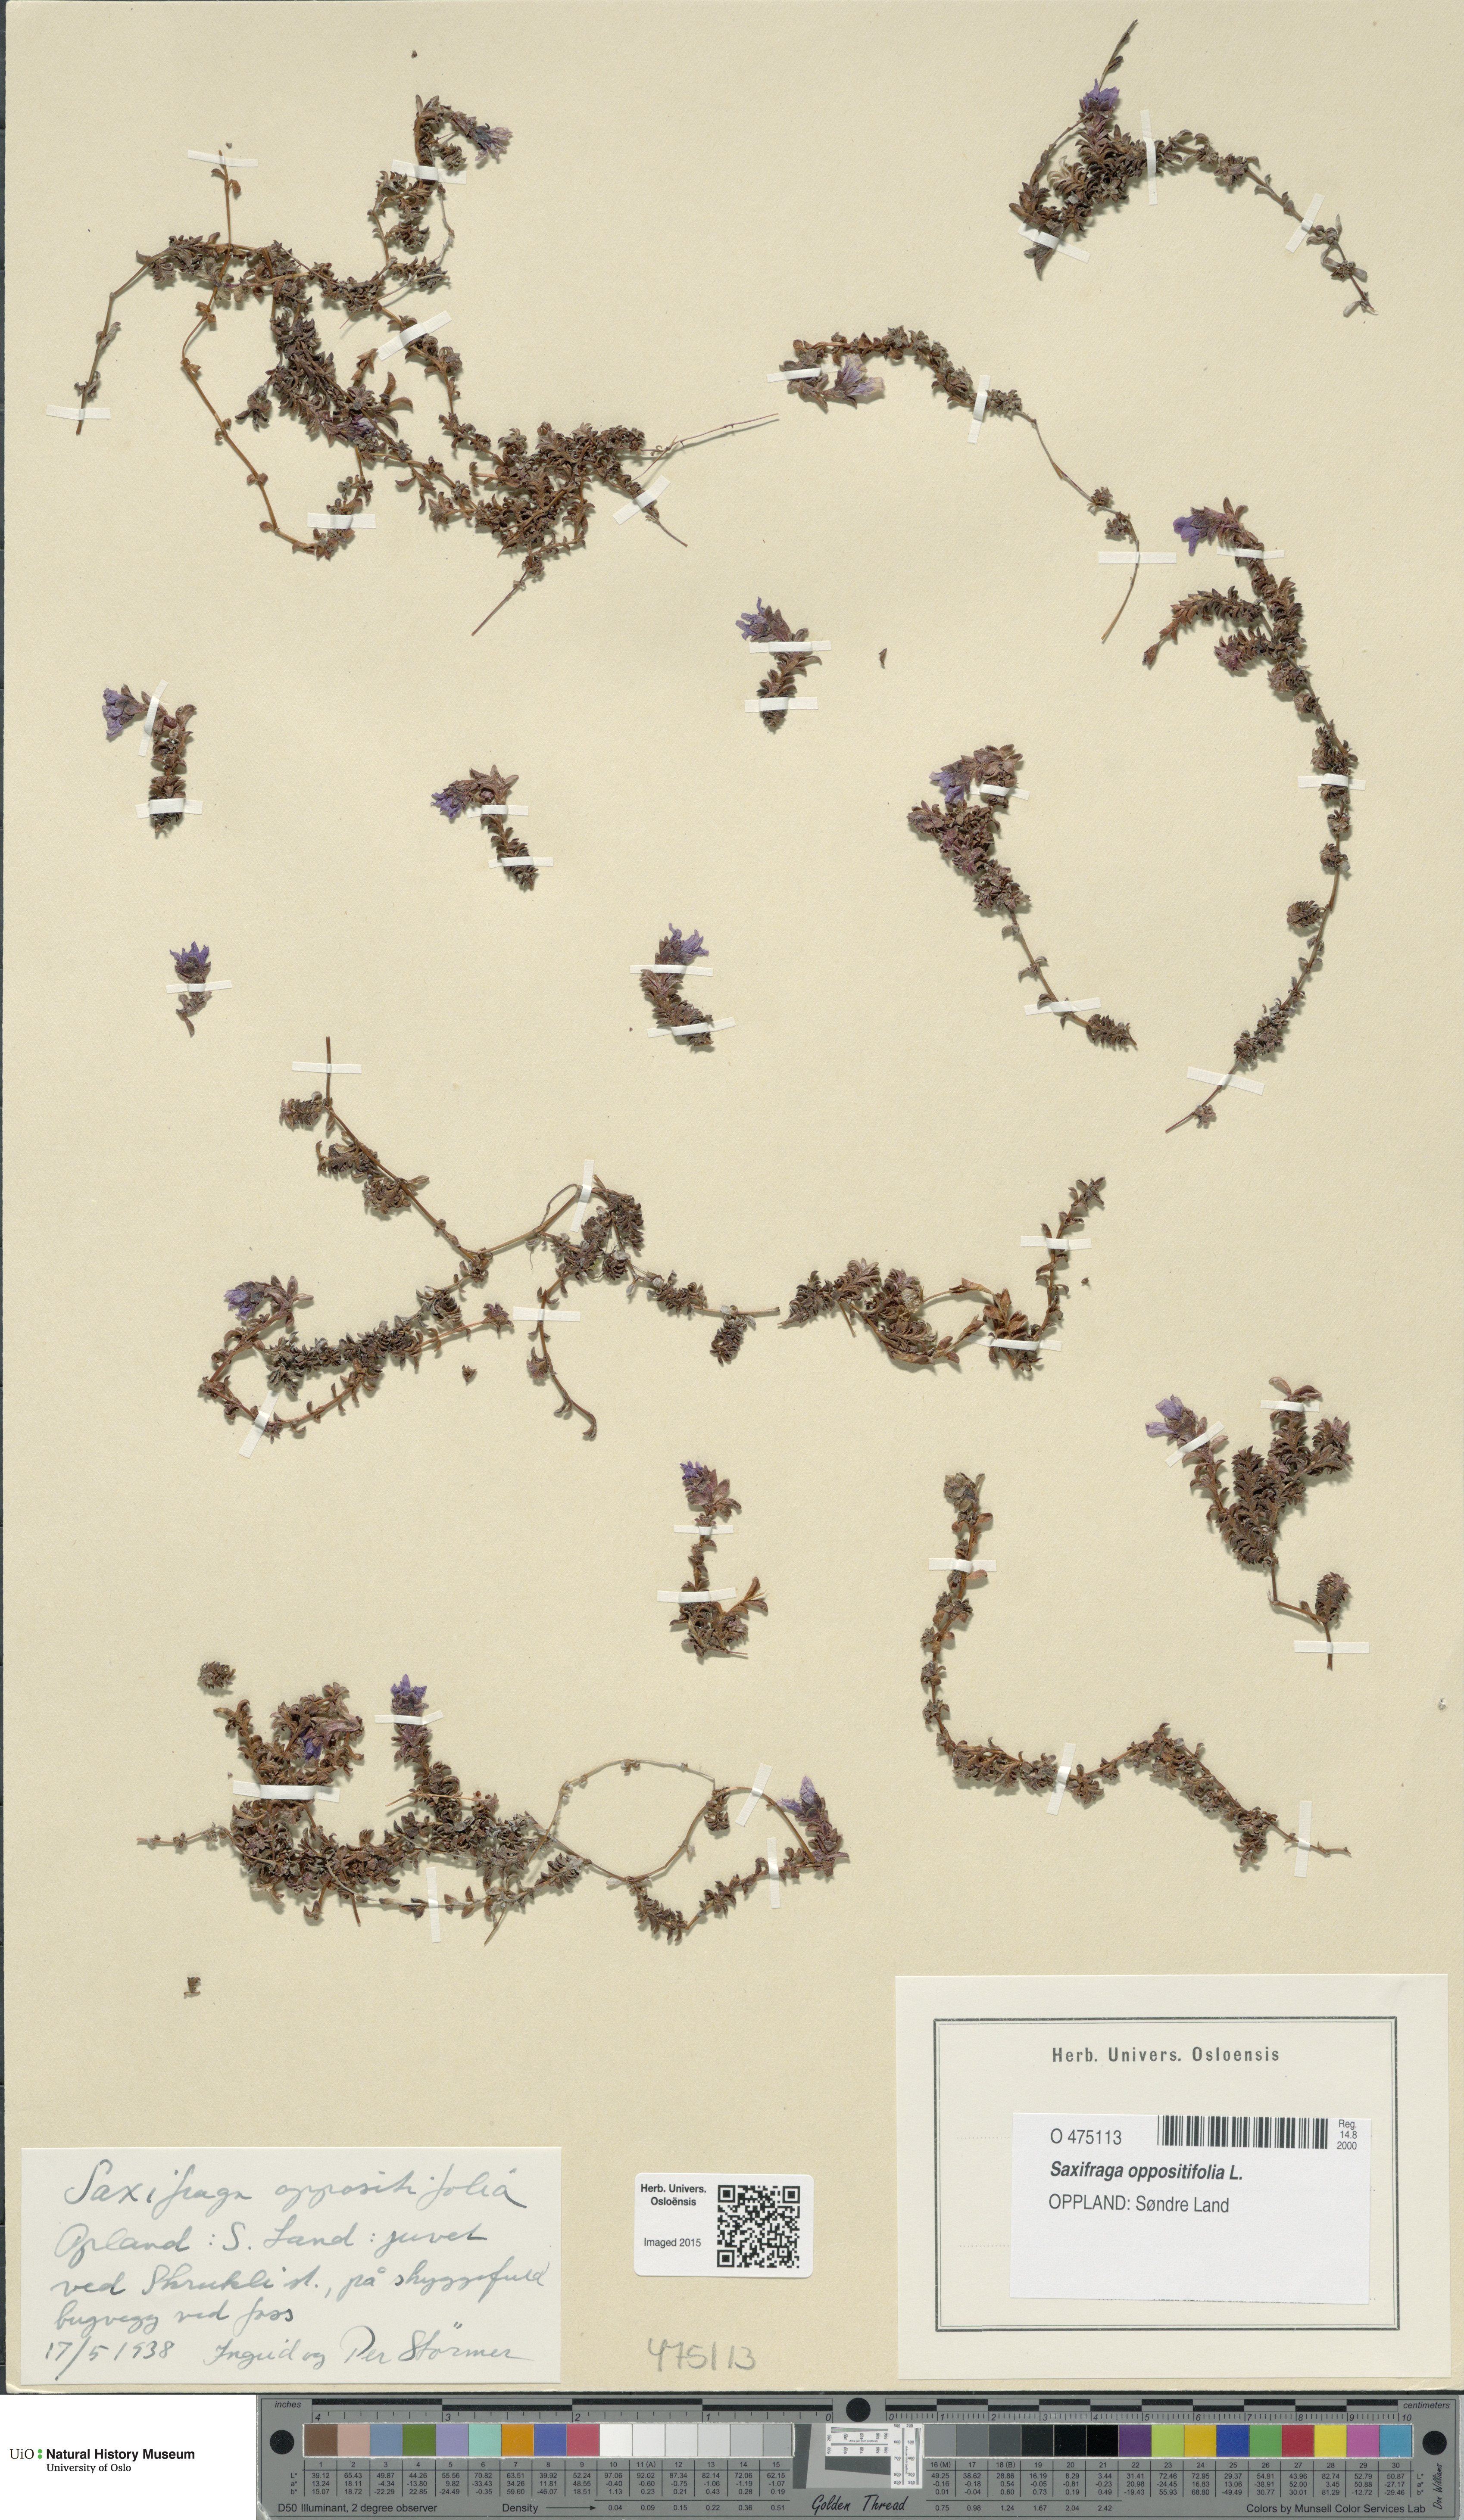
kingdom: Plantae
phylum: Tracheophyta
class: Magnoliopsida
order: Saxifragales
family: Saxifragaceae
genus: Saxifraga
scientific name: Saxifraga oppositifolia
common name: Purple saxifrage
